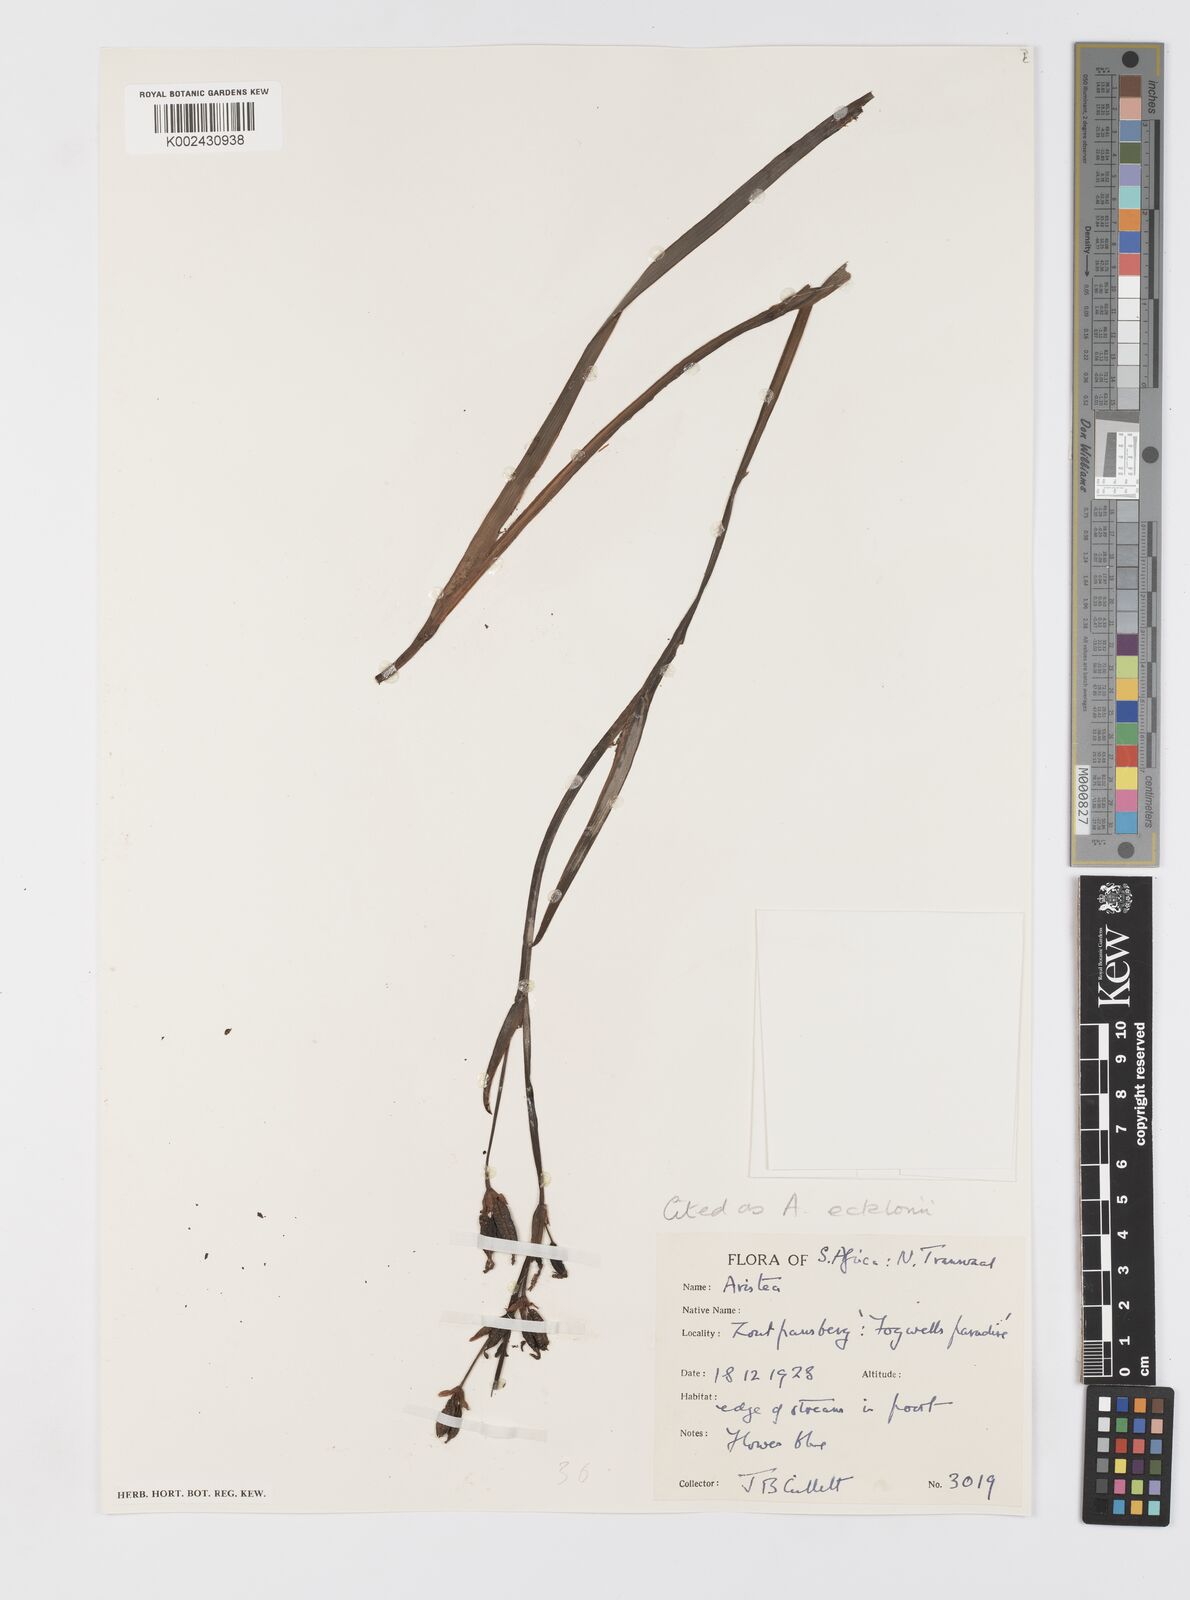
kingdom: Plantae
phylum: Tracheophyta
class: Liliopsida
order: Asparagales
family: Iridaceae
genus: Aristea
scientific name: Aristea ecklonii
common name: Blue corn-lily
